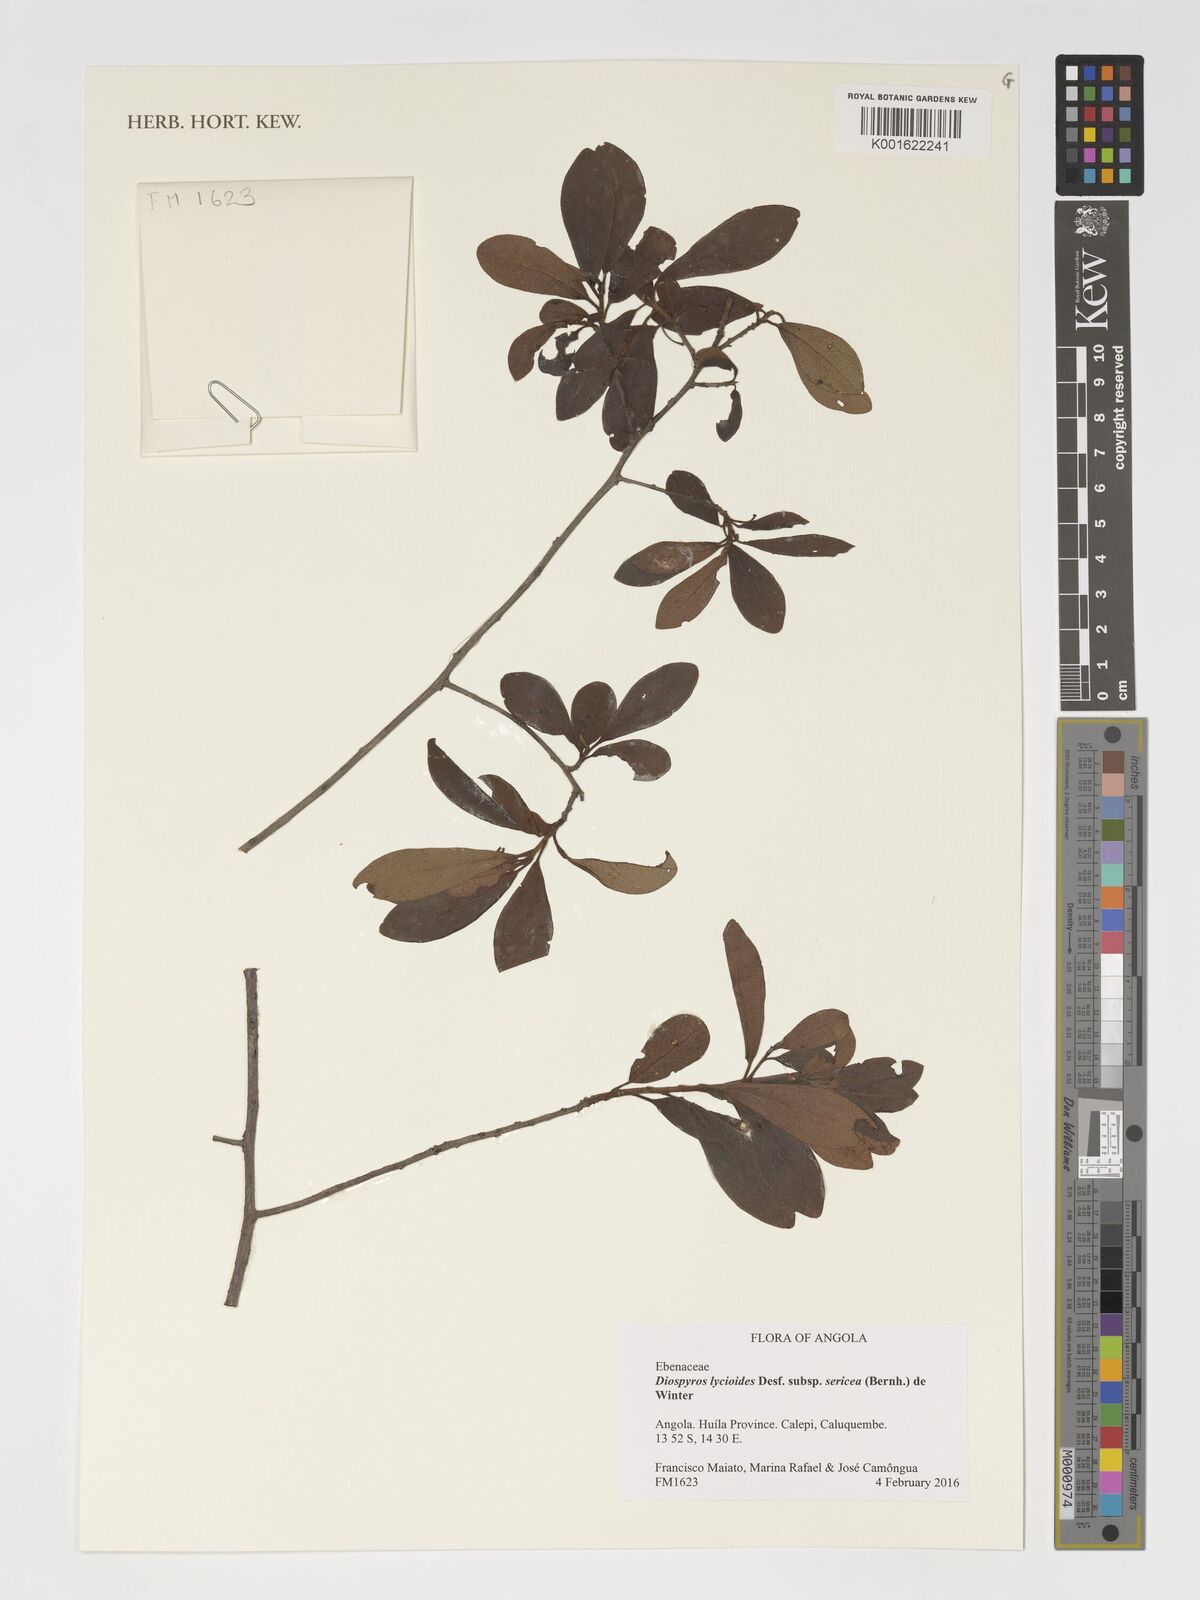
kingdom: Plantae
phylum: Tracheophyta
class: Magnoliopsida
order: Ericales
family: Ebenaceae
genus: Diospyros
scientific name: Diospyros lycioides
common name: Red star apple
